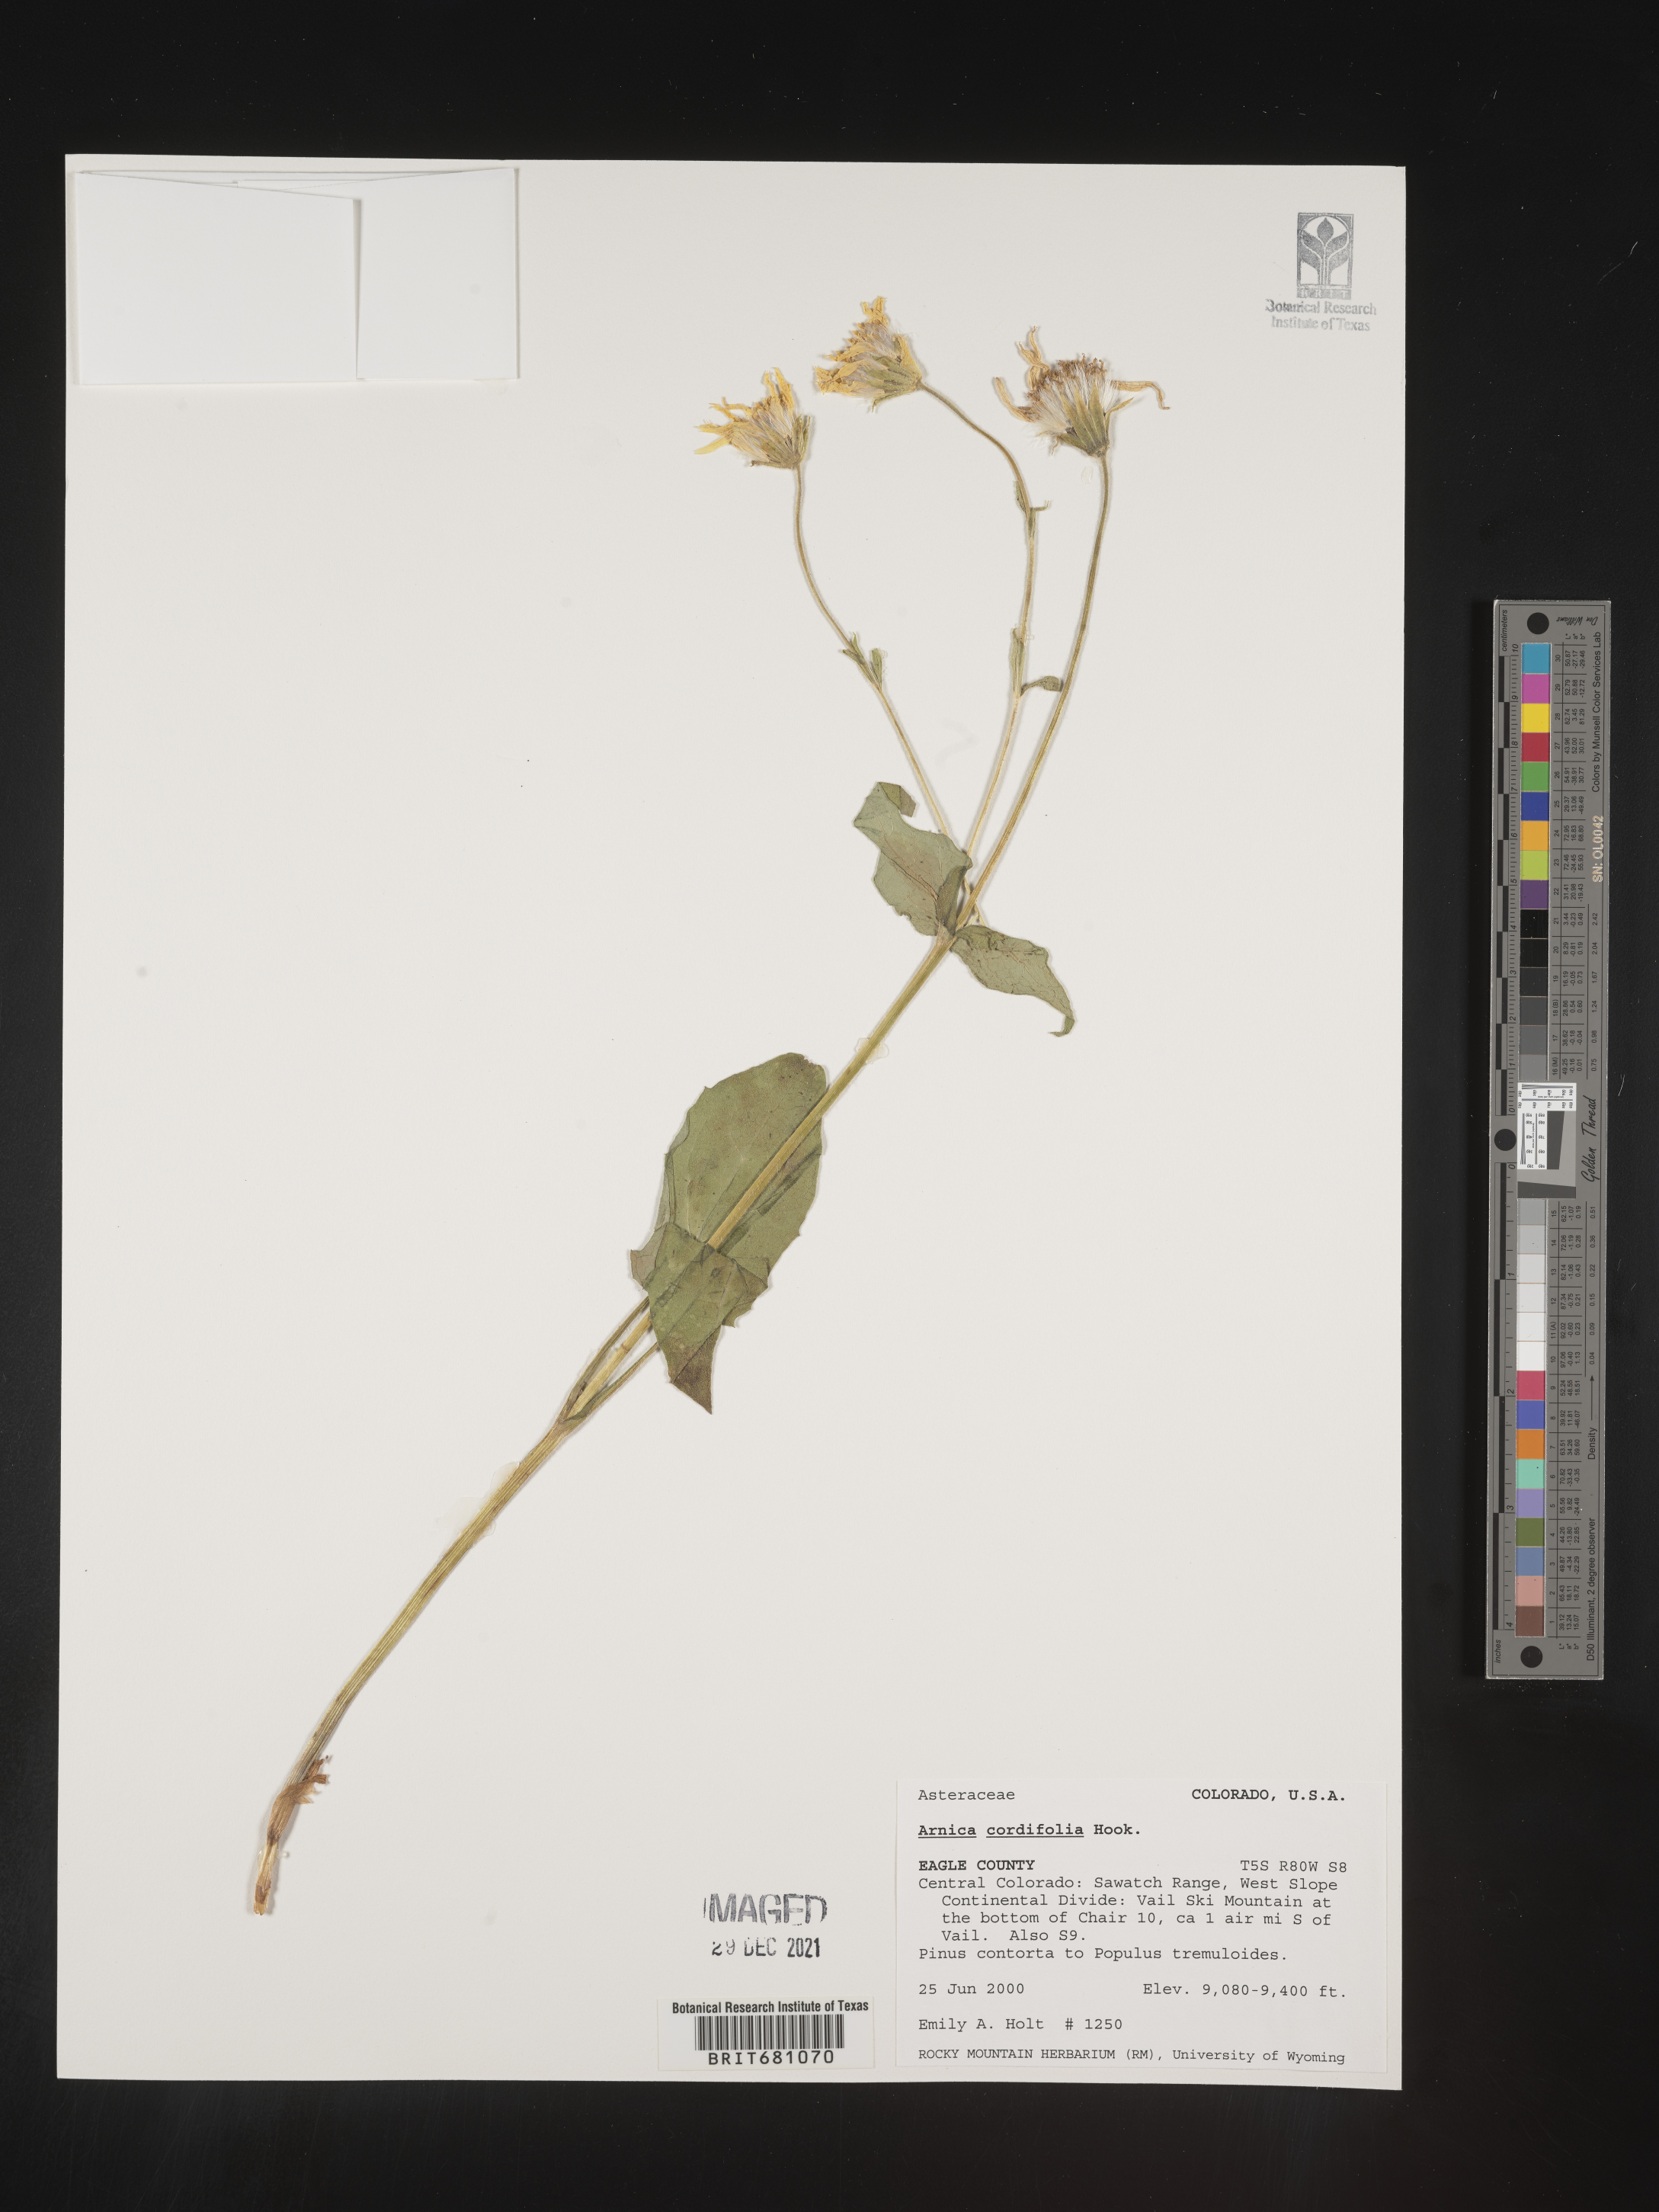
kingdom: Plantae
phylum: Tracheophyta
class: Magnoliopsida
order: Asterales
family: Asteraceae
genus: Arnica
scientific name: Arnica cordifolia
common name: Heart-leaf arnica
